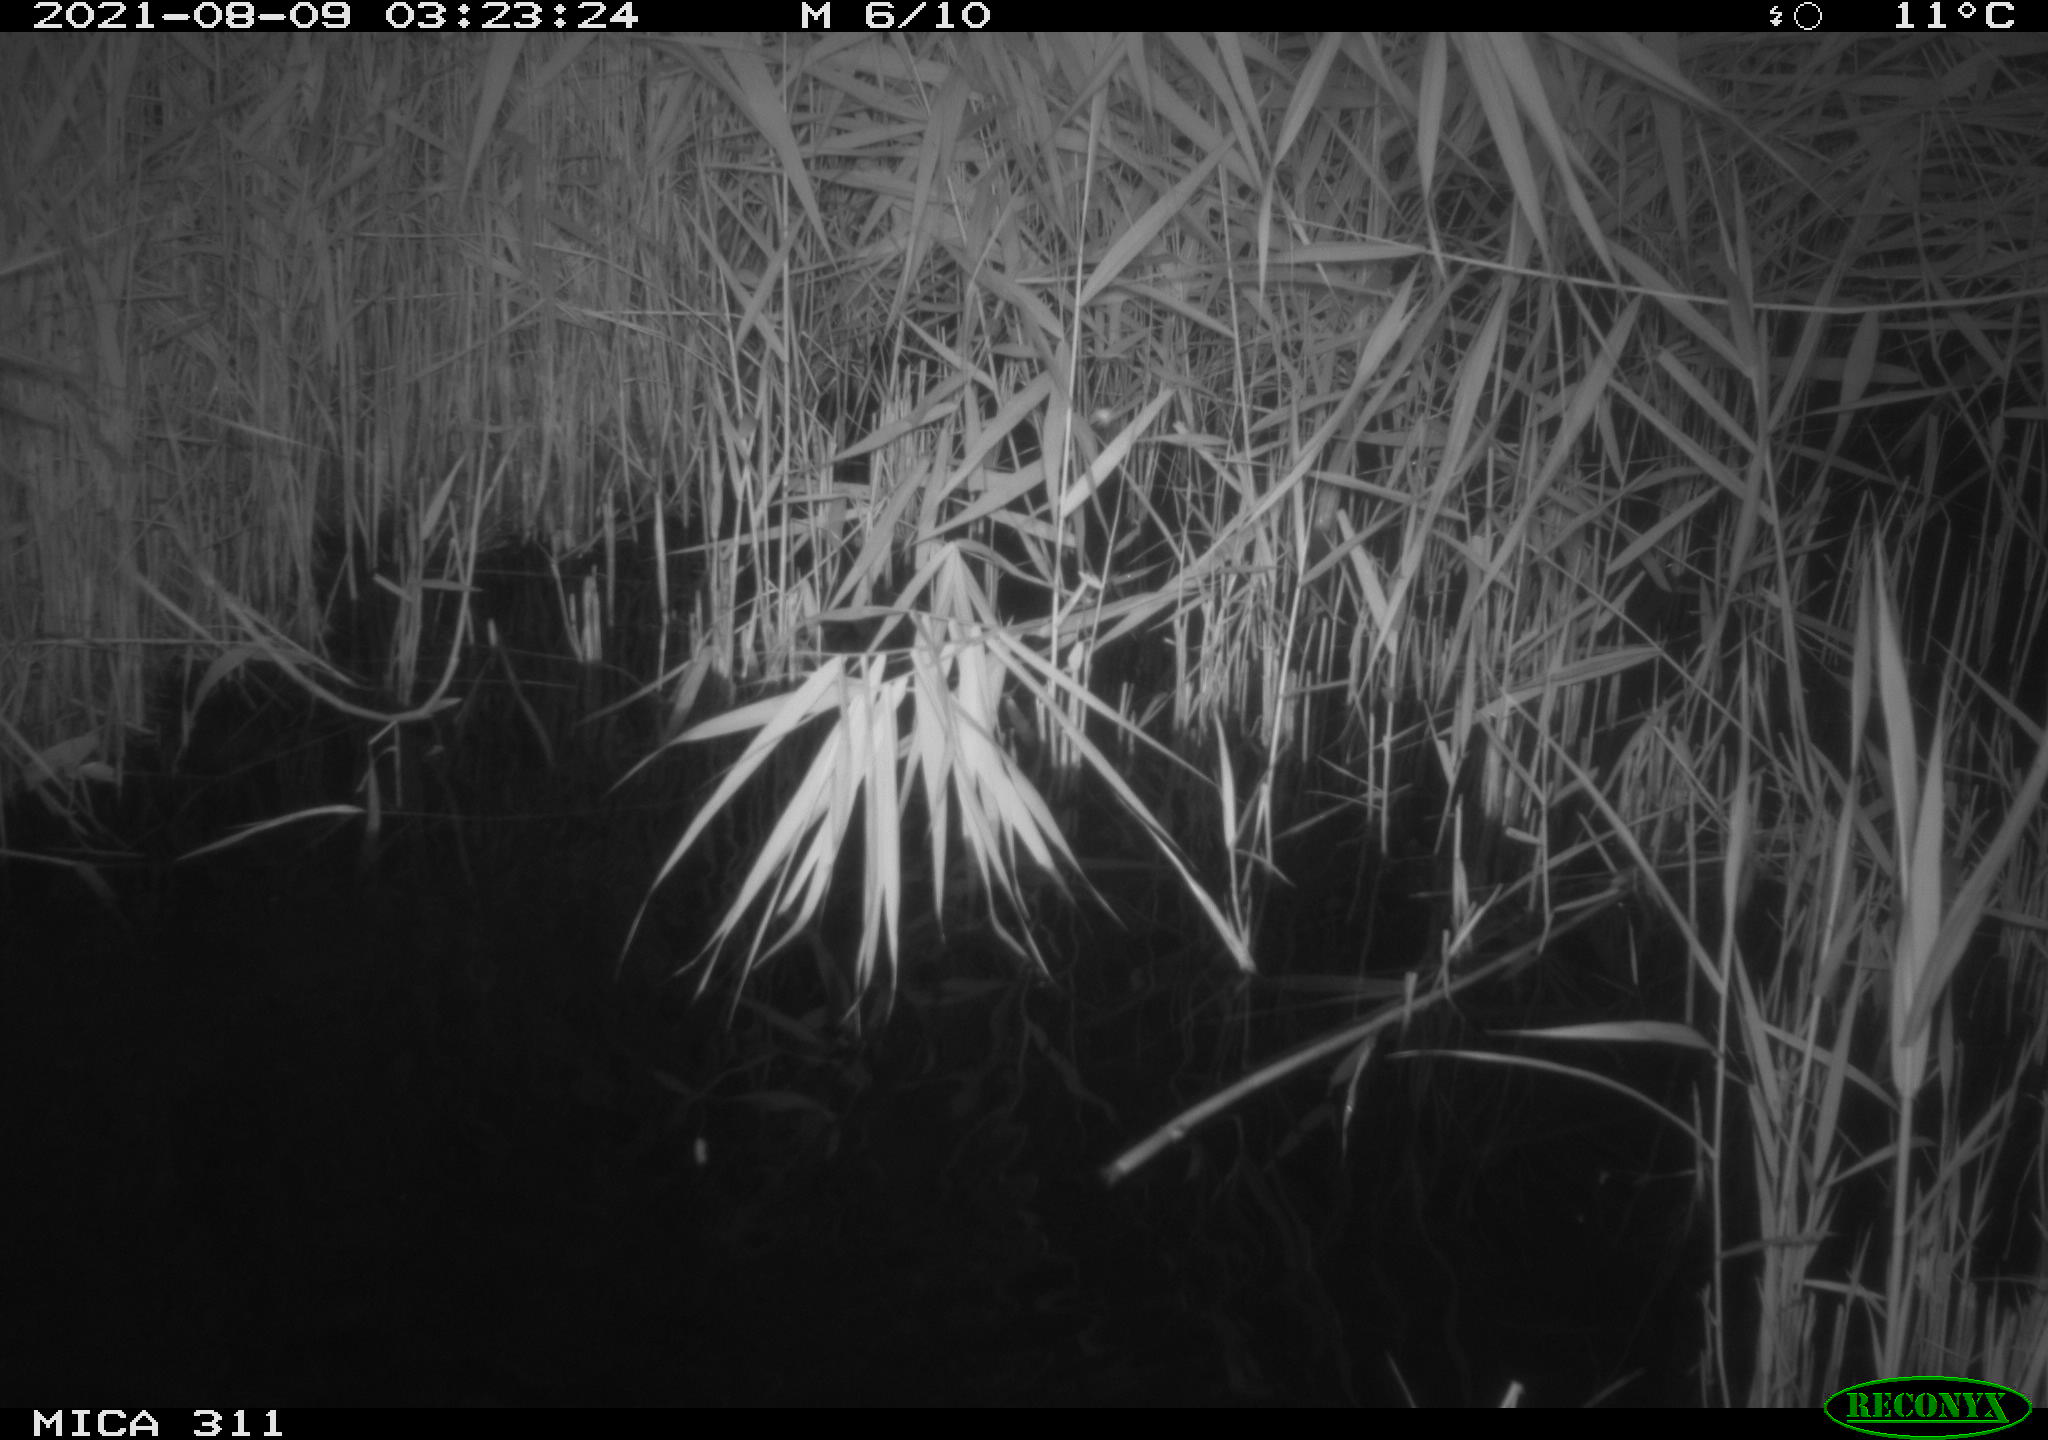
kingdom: Animalia
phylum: Chordata
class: Mammalia
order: Rodentia
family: Muridae
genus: Rattus
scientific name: Rattus norvegicus
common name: Brown rat
